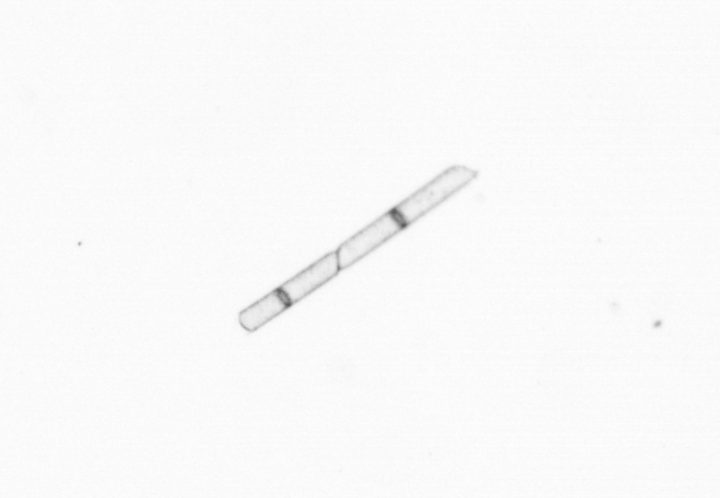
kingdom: Chromista
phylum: Ochrophyta
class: Bacillariophyceae
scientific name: Bacillariophyceae
